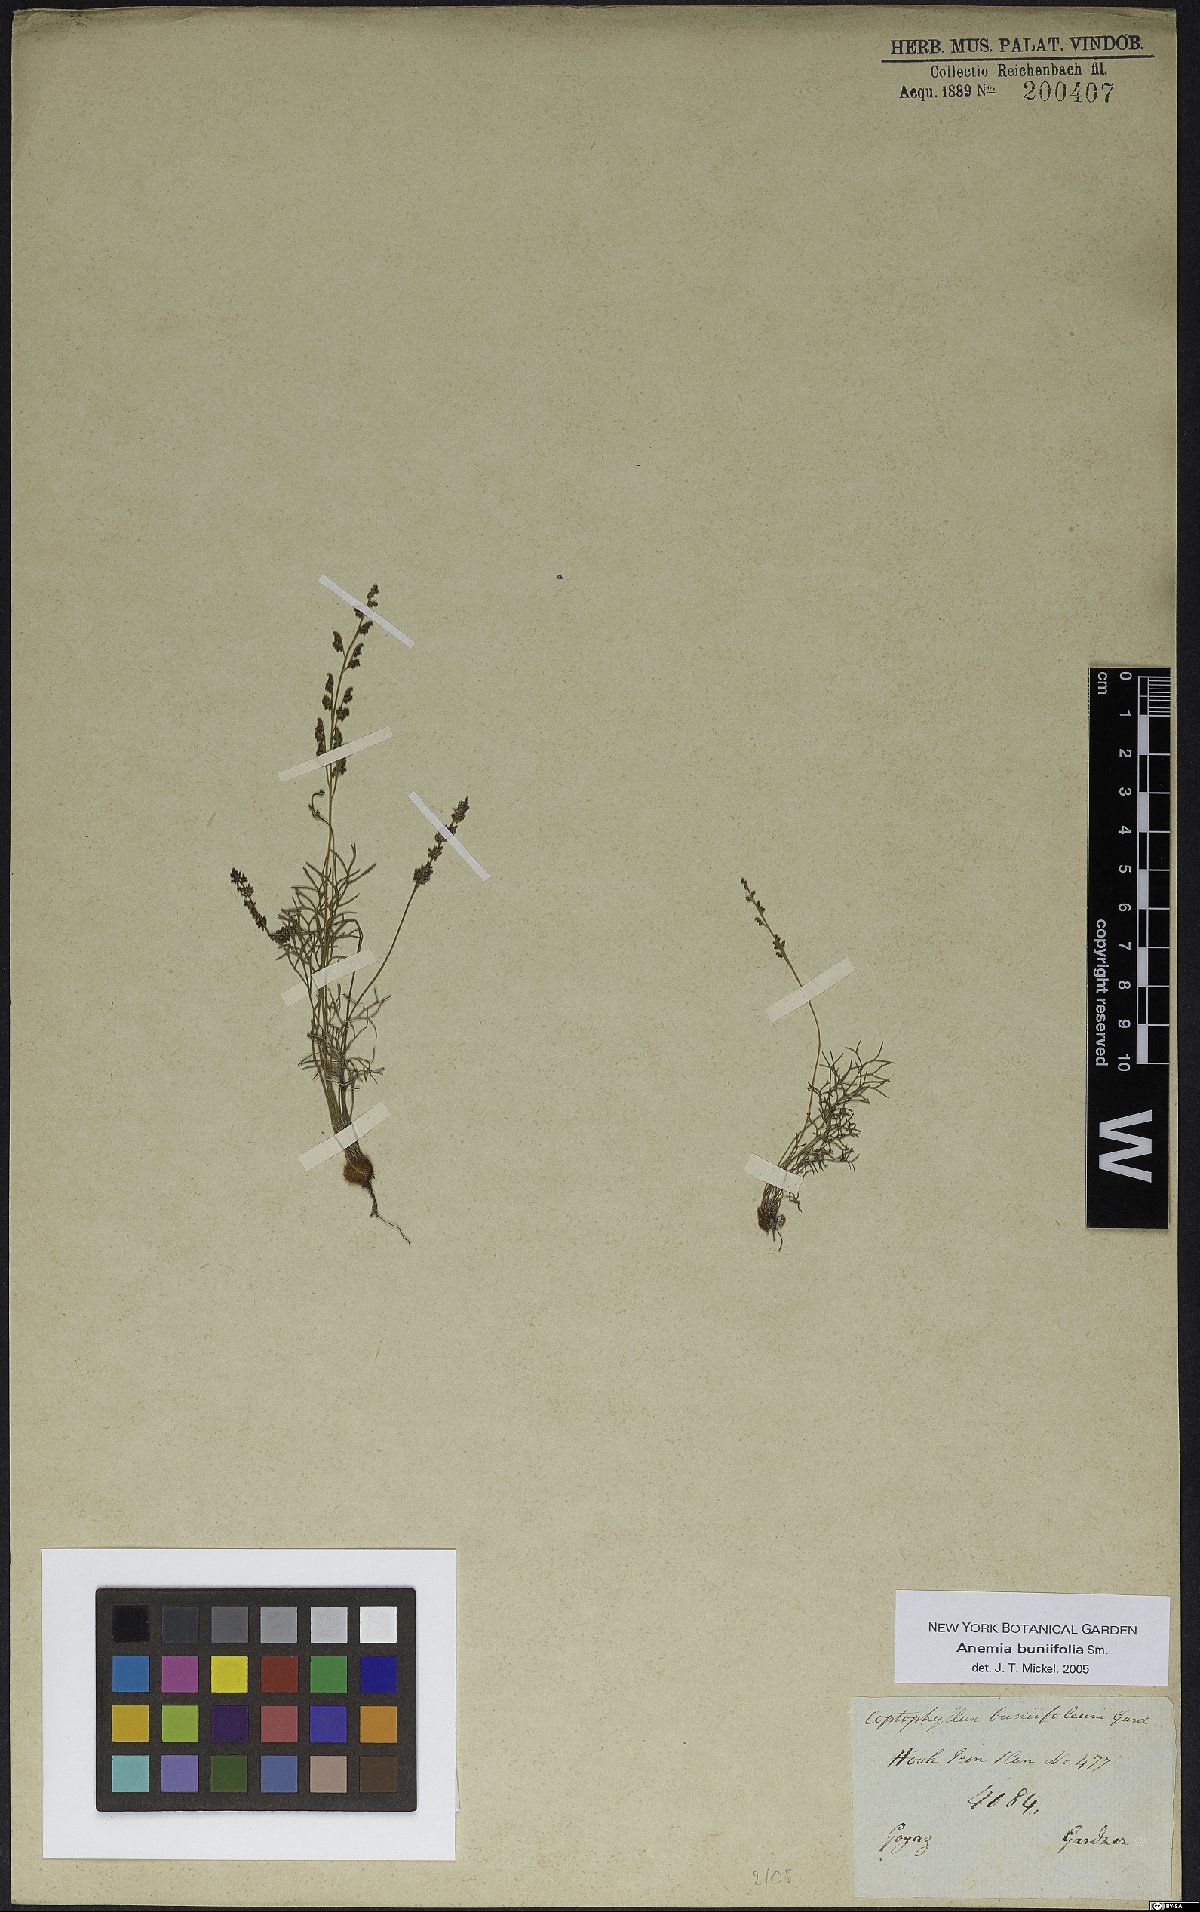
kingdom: Plantae
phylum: Tracheophyta
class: Polypodiopsida
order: Schizaeales
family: Anemiaceae
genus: Anemia
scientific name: Anemia buniifolia
